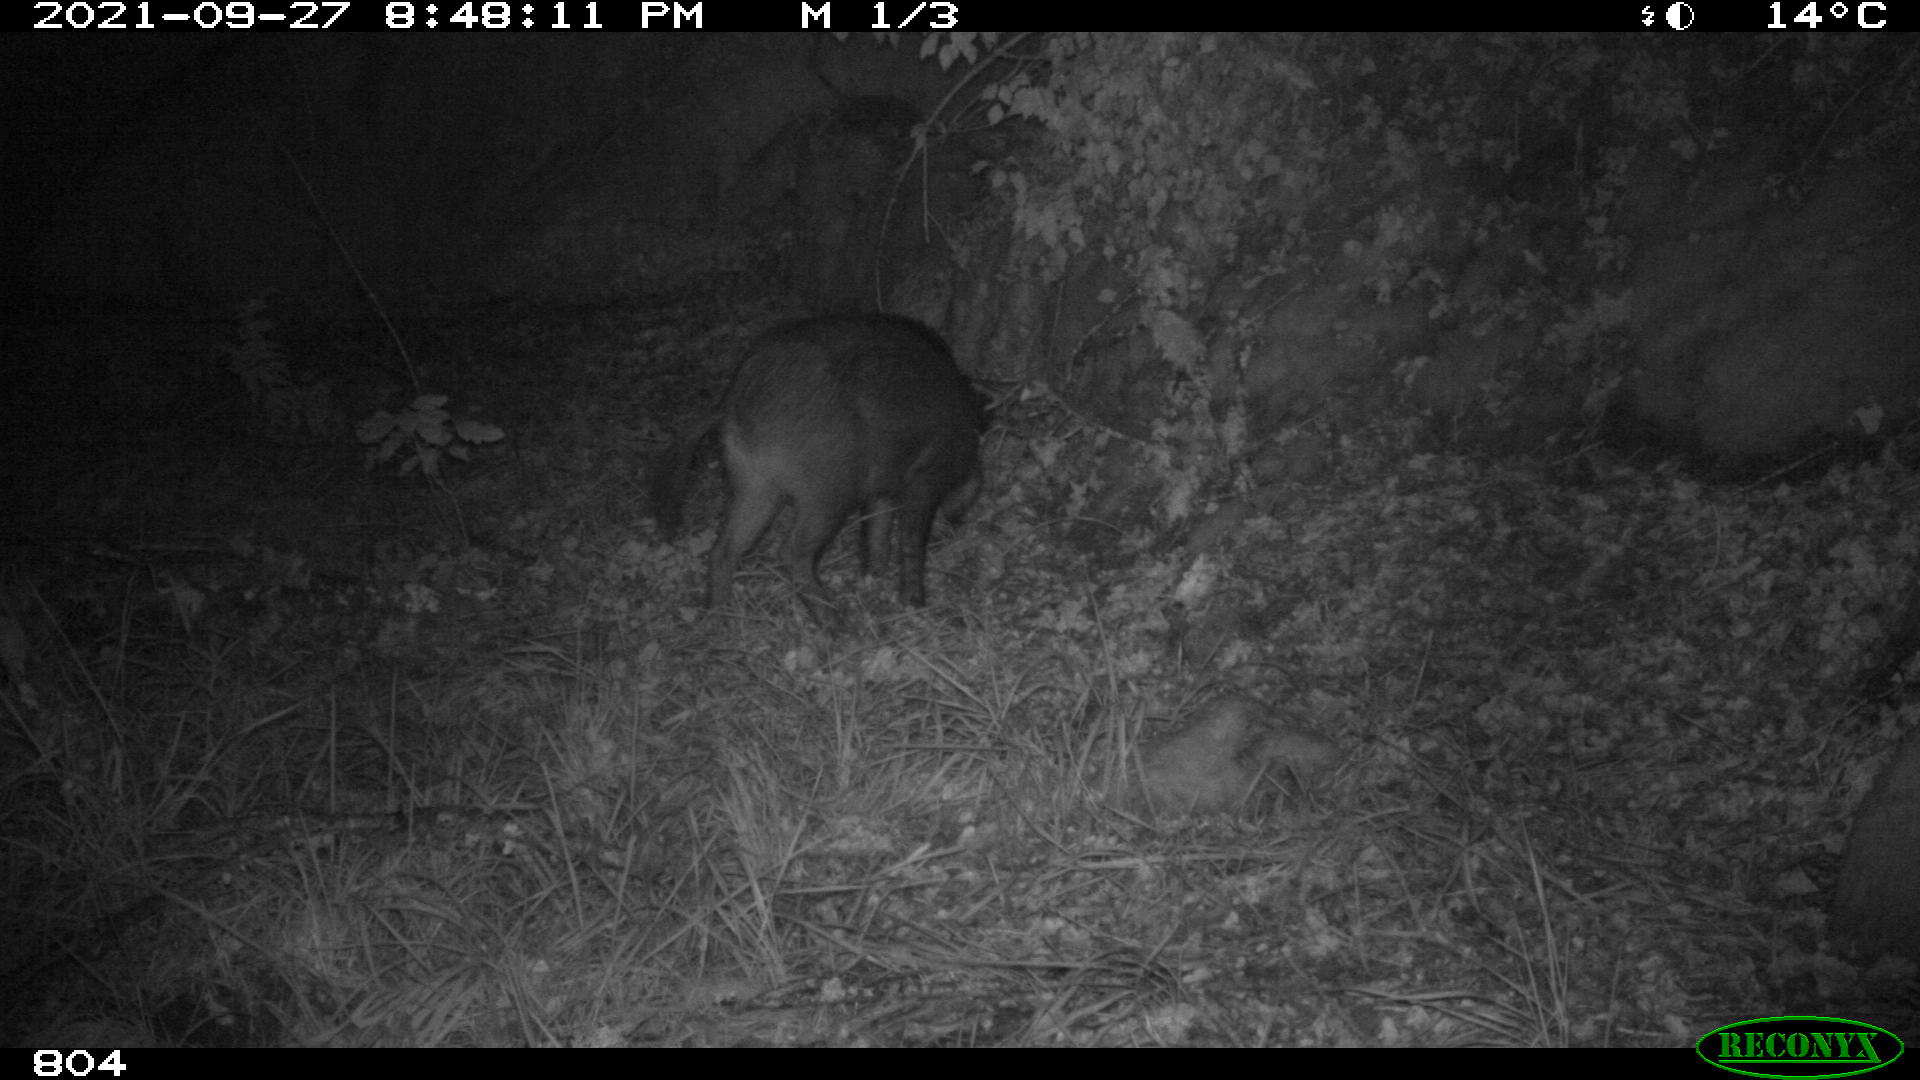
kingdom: Animalia
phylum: Chordata
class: Mammalia
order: Artiodactyla
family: Suidae
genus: Sus
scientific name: Sus scrofa
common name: Wild boar
